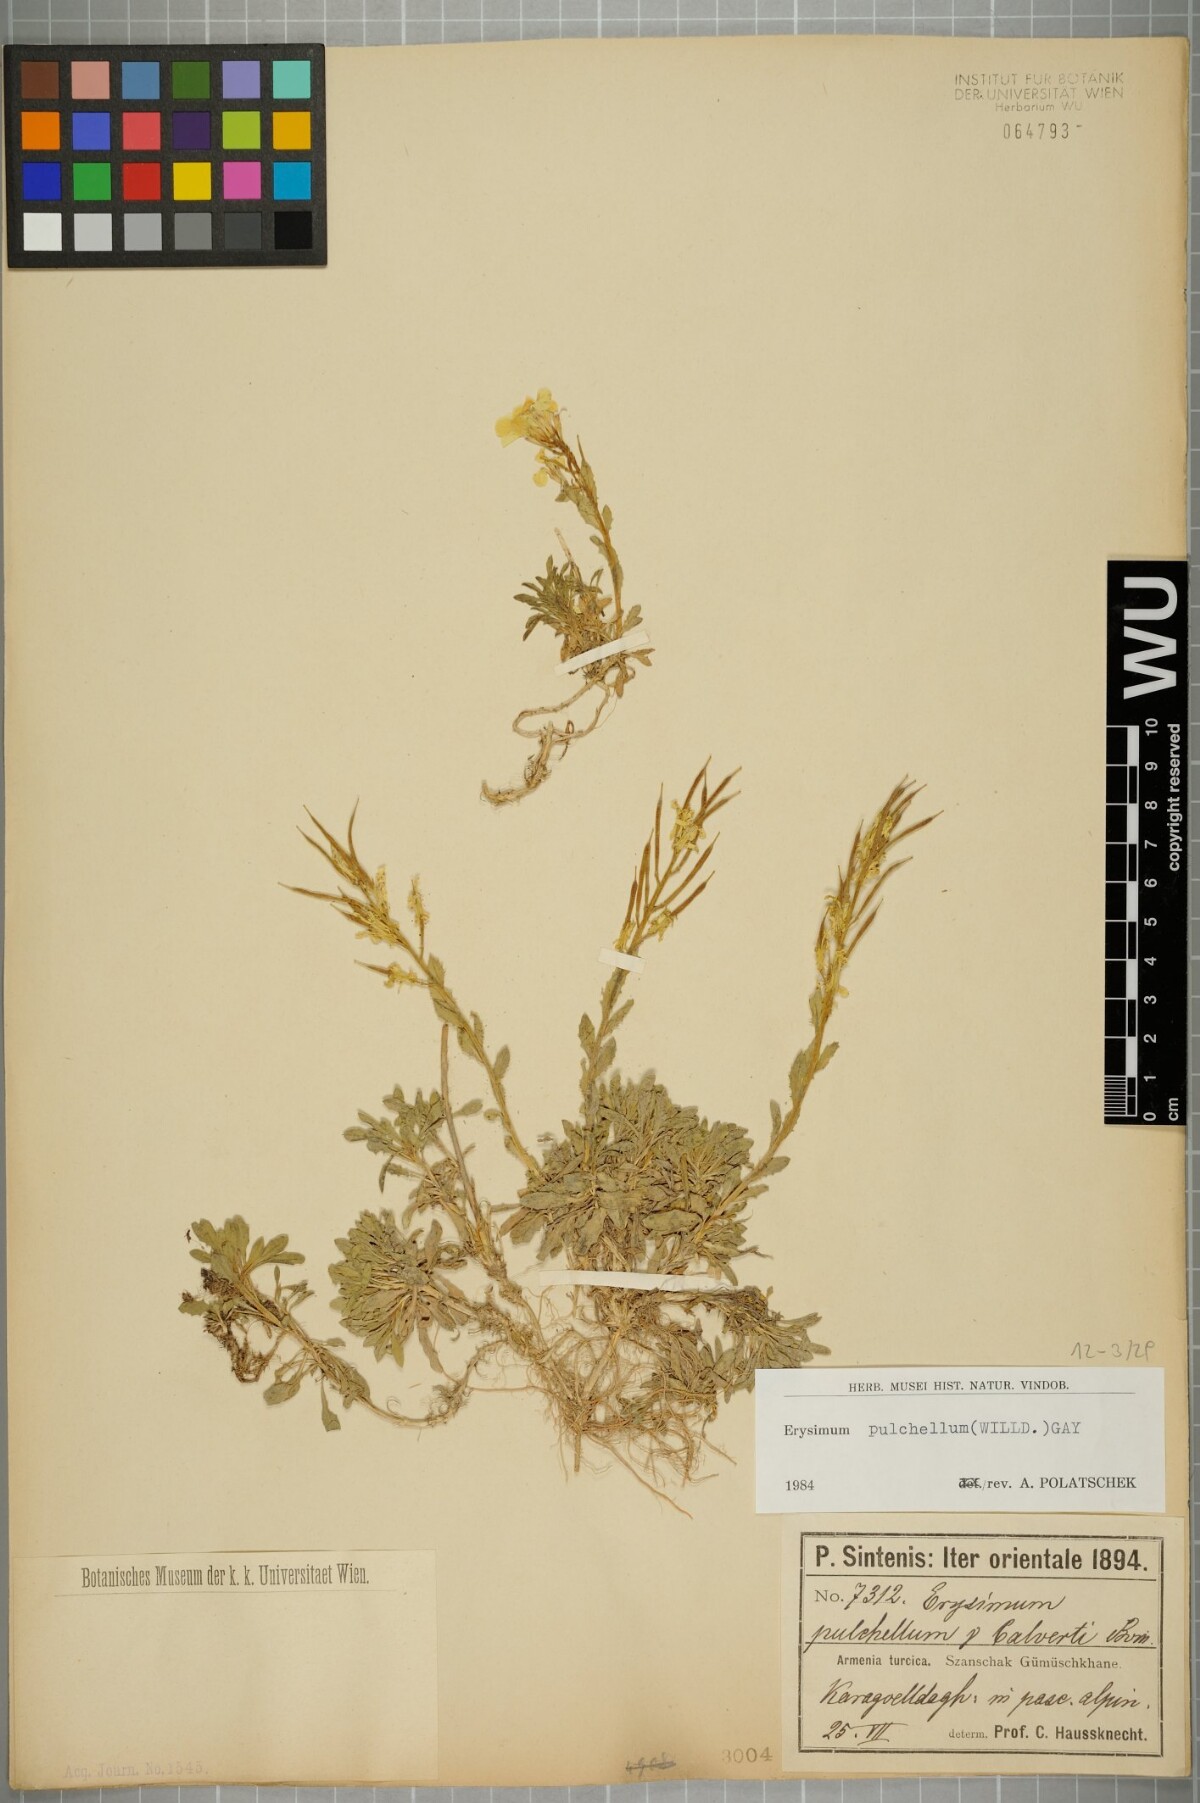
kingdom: Plantae
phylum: Tracheophyta
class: Magnoliopsida
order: Brassicales
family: Brassicaceae
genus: Erysimum
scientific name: Erysimum pulchellum
